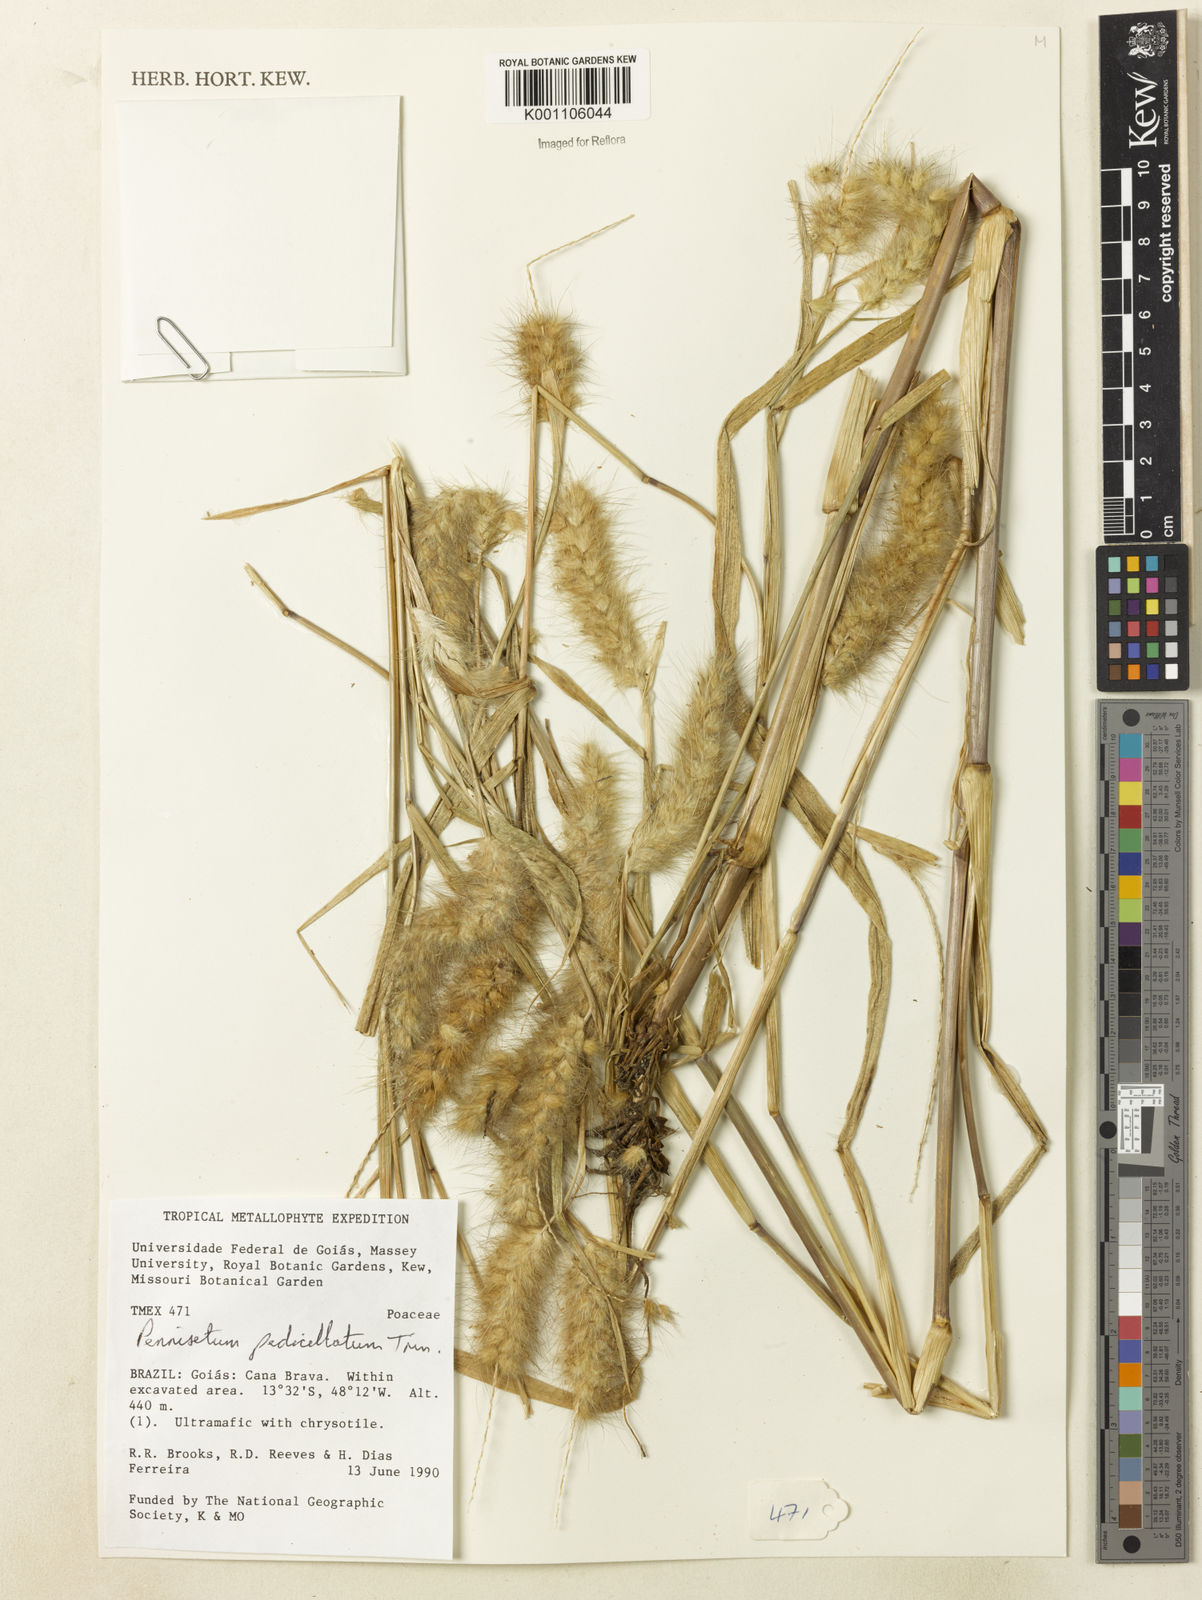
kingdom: Plantae
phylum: Tracheophyta
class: Liliopsida
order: Poales
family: Poaceae
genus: Cenchrus
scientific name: Cenchrus pedicellatus
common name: Hairy fountain grass
